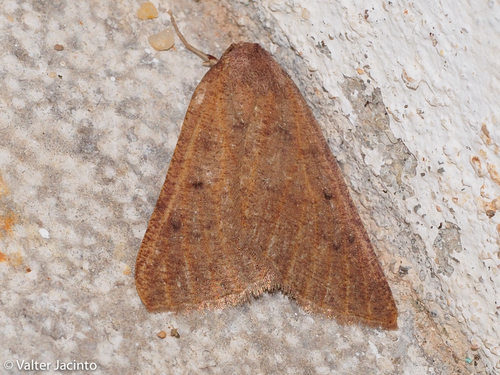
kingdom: Animalia
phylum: Arthropoda
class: Insecta
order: Lepidoptera
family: Geometridae
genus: Onychora
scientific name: Onychora agaritharia
